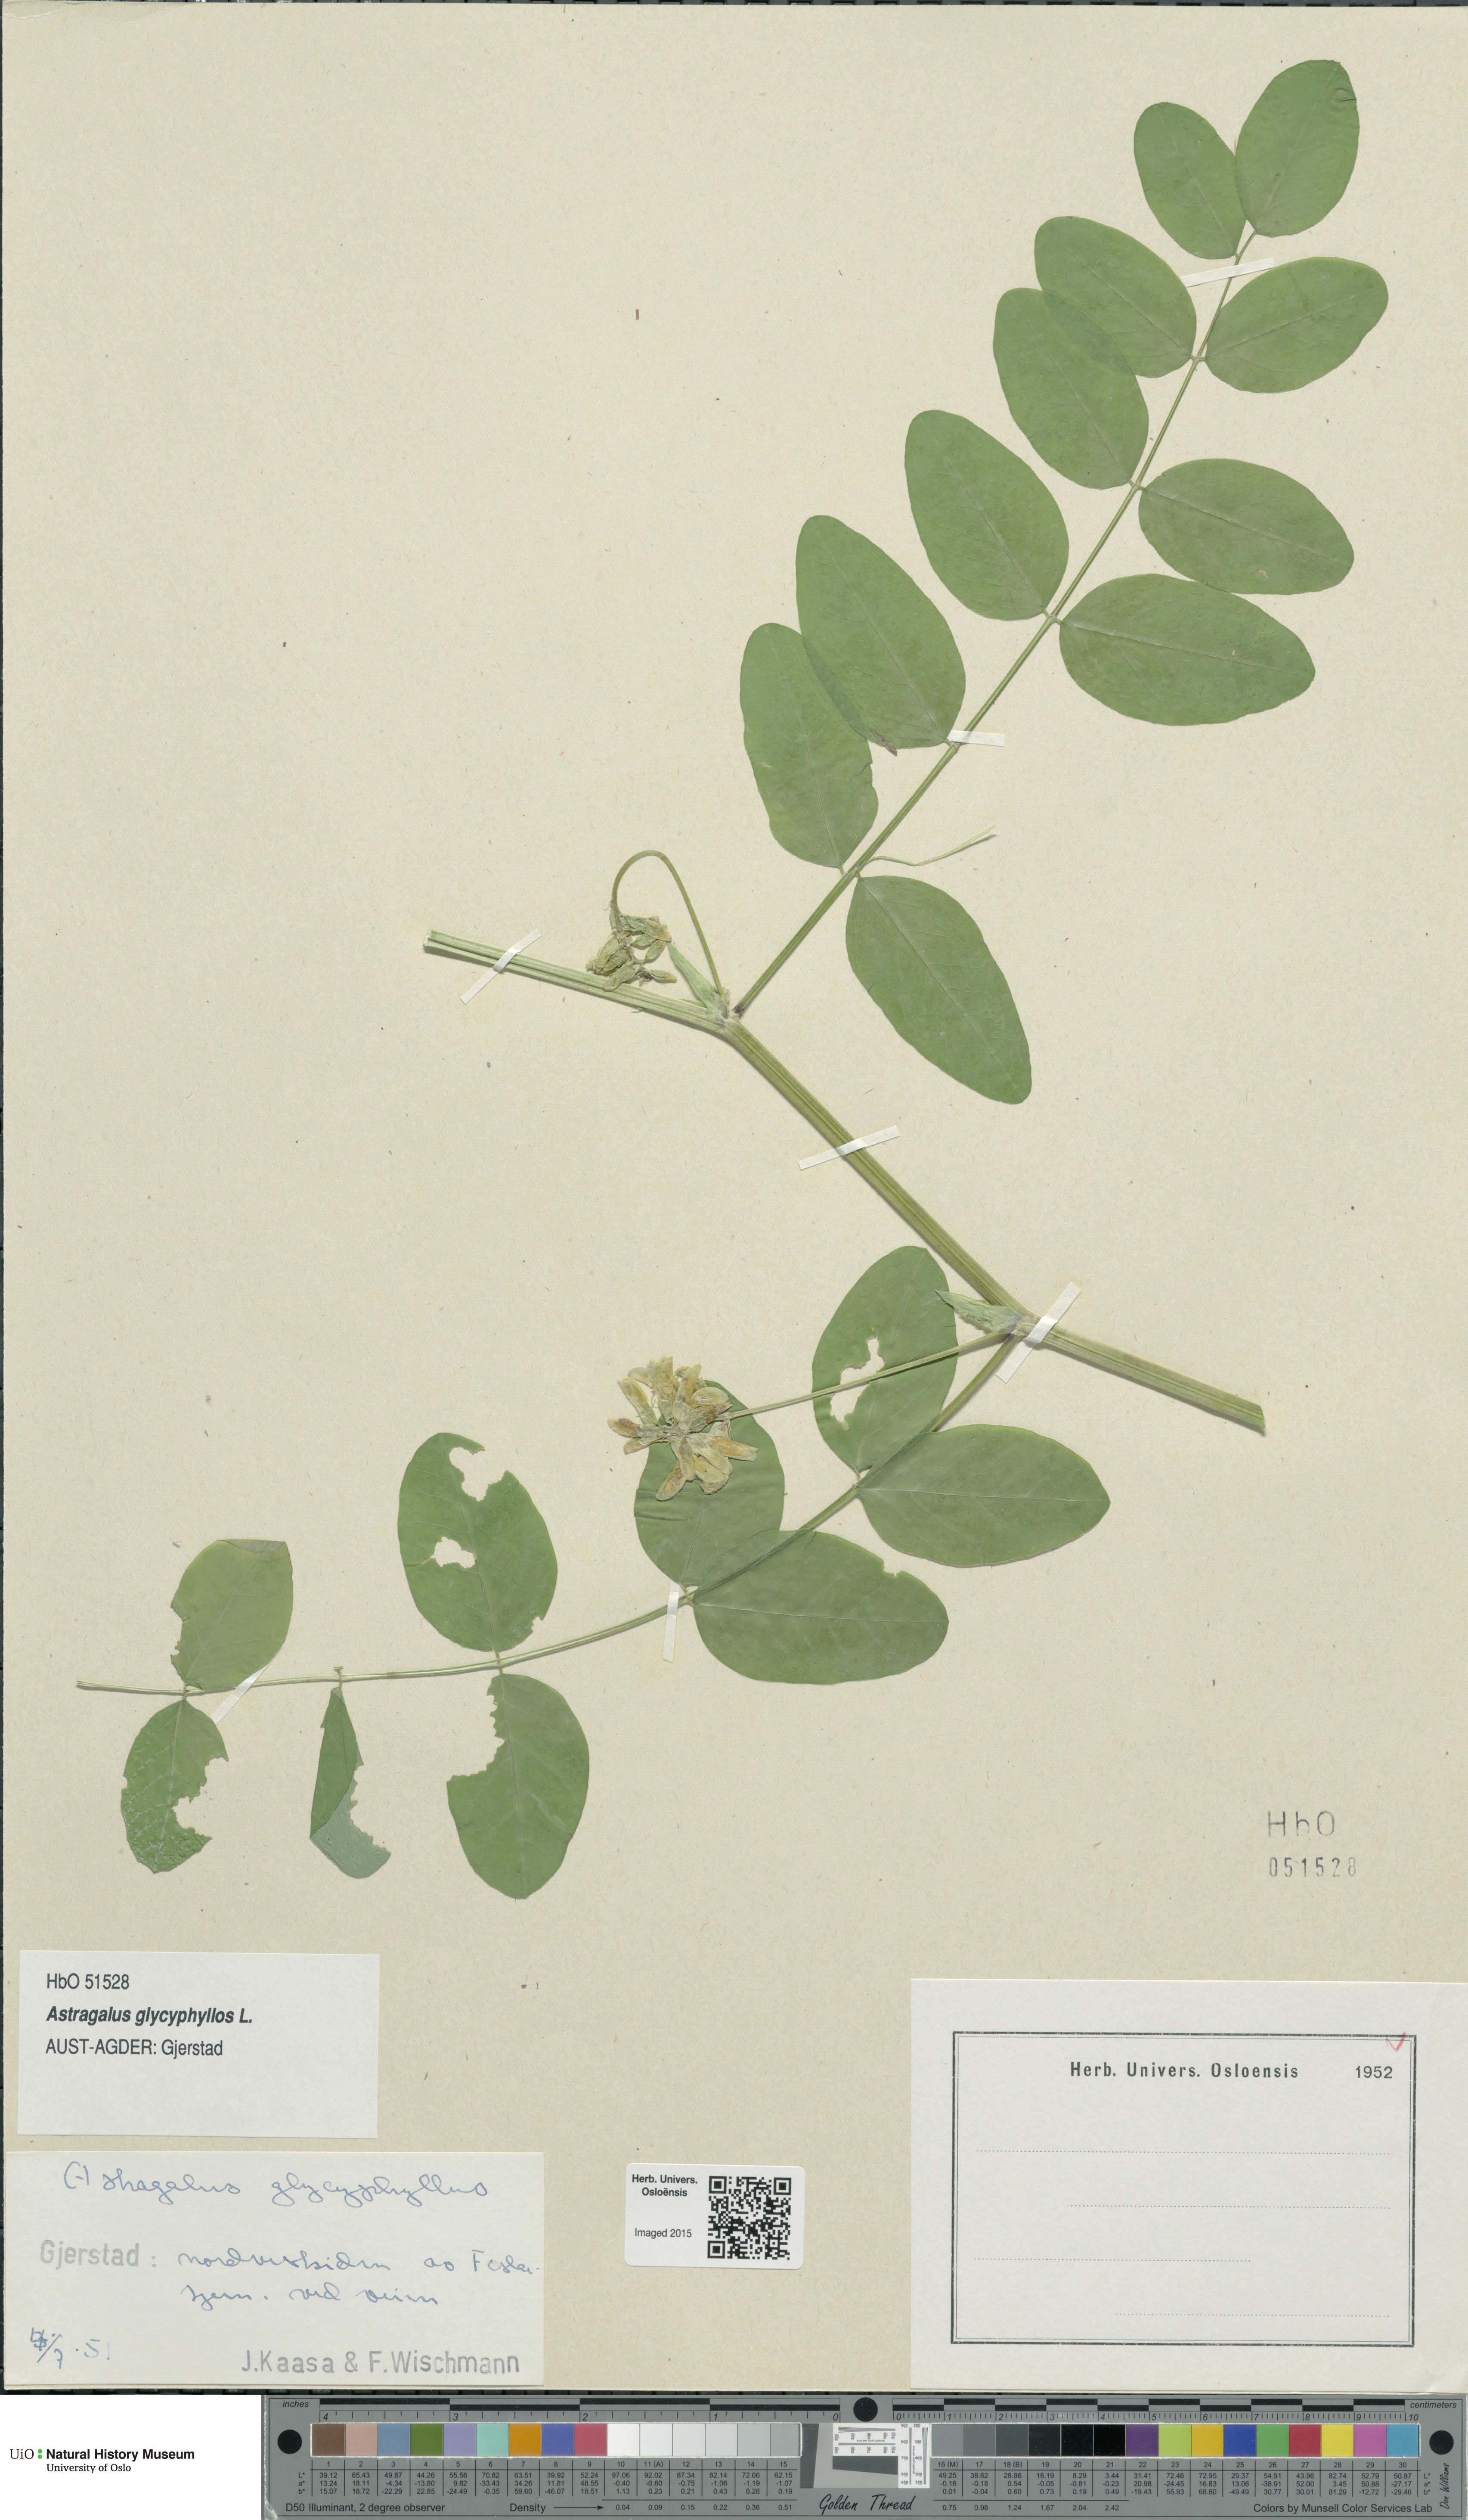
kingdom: Plantae
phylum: Tracheophyta
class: Magnoliopsida
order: Fabales
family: Fabaceae
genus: Astragalus
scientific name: Astragalus glycyphyllos
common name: Wild liquorice
